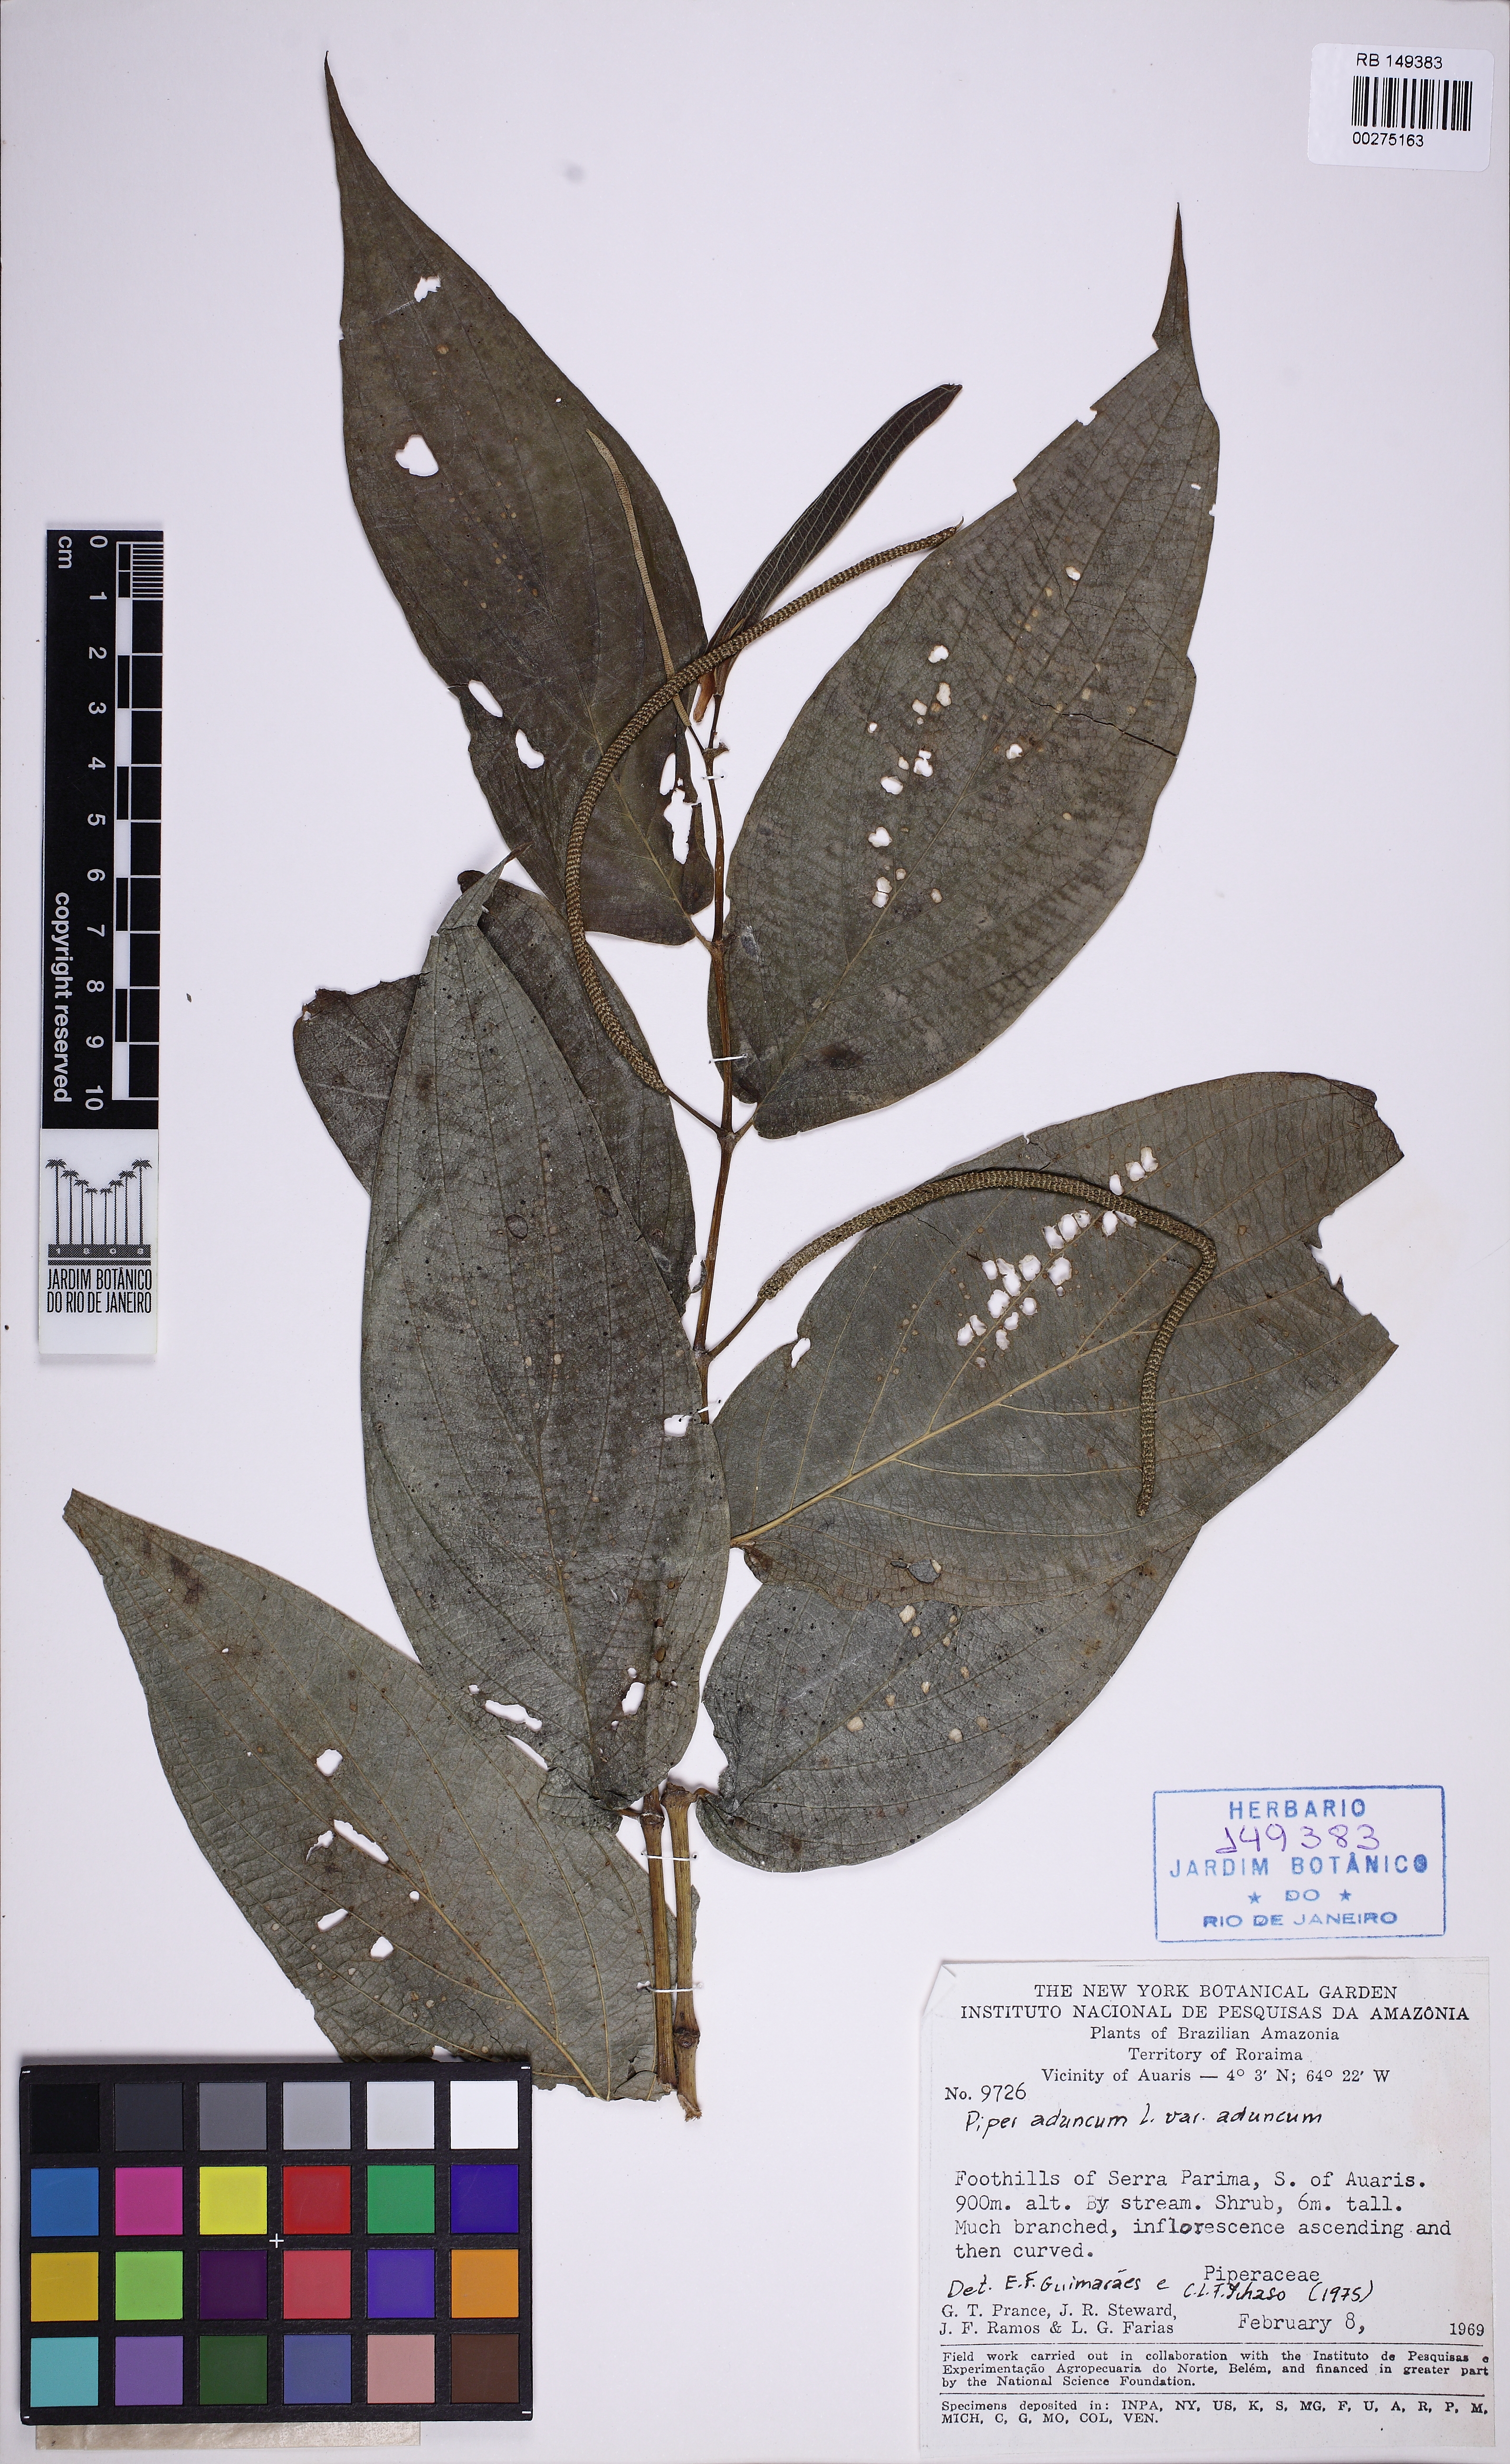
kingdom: Plantae
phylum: Tracheophyta
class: Magnoliopsida
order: Piperales
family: Piperaceae
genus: Piper
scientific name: Piper aduncum
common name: Spiked pepper
